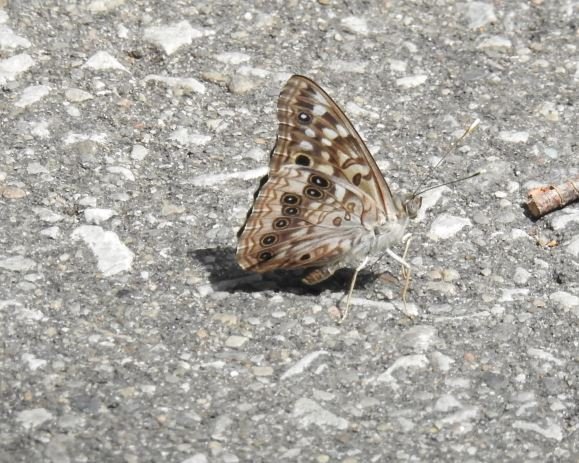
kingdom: Animalia
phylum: Arthropoda
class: Insecta
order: Lepidoptera
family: Nymphalidae
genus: Asterocampa
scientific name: Asterocampa celtis
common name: Hackberry Emperor
